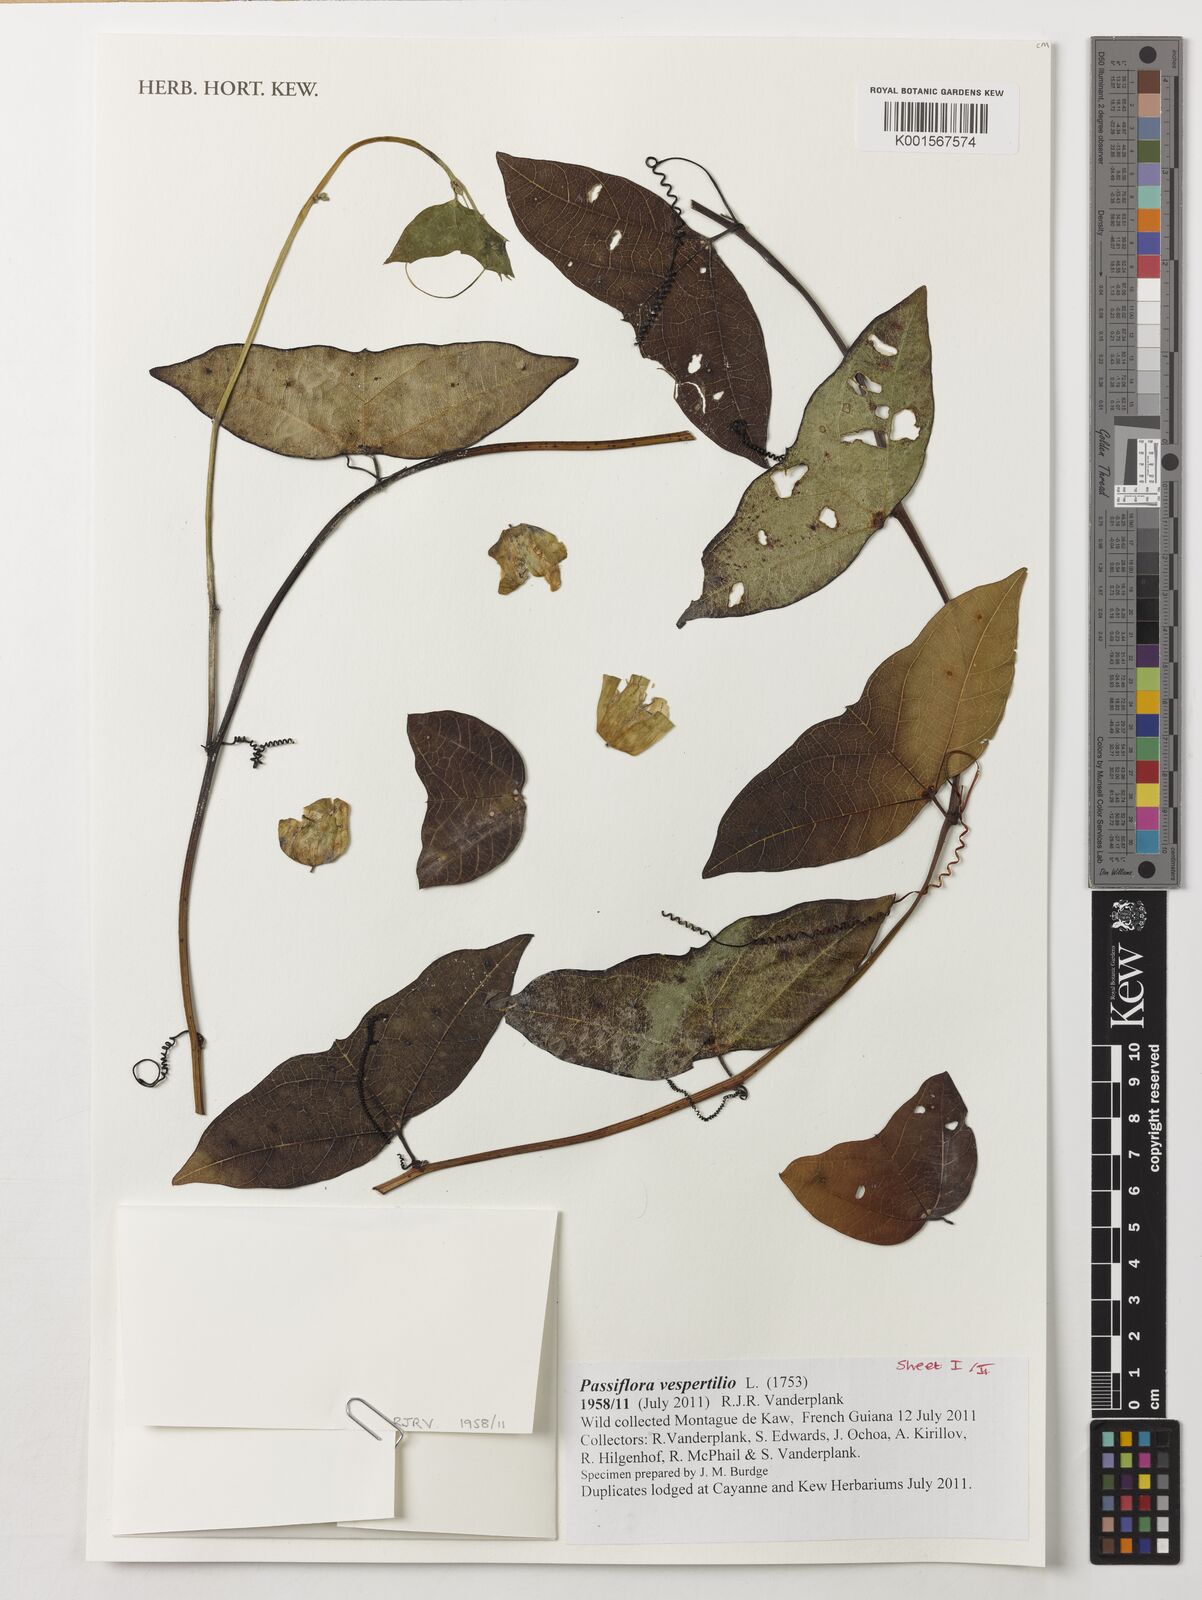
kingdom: Plantae
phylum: Tracheophyta
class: Magnoliopsida
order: Malpighiales
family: Passifloraceae
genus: Passiflora
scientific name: Passiflora vespertilio
